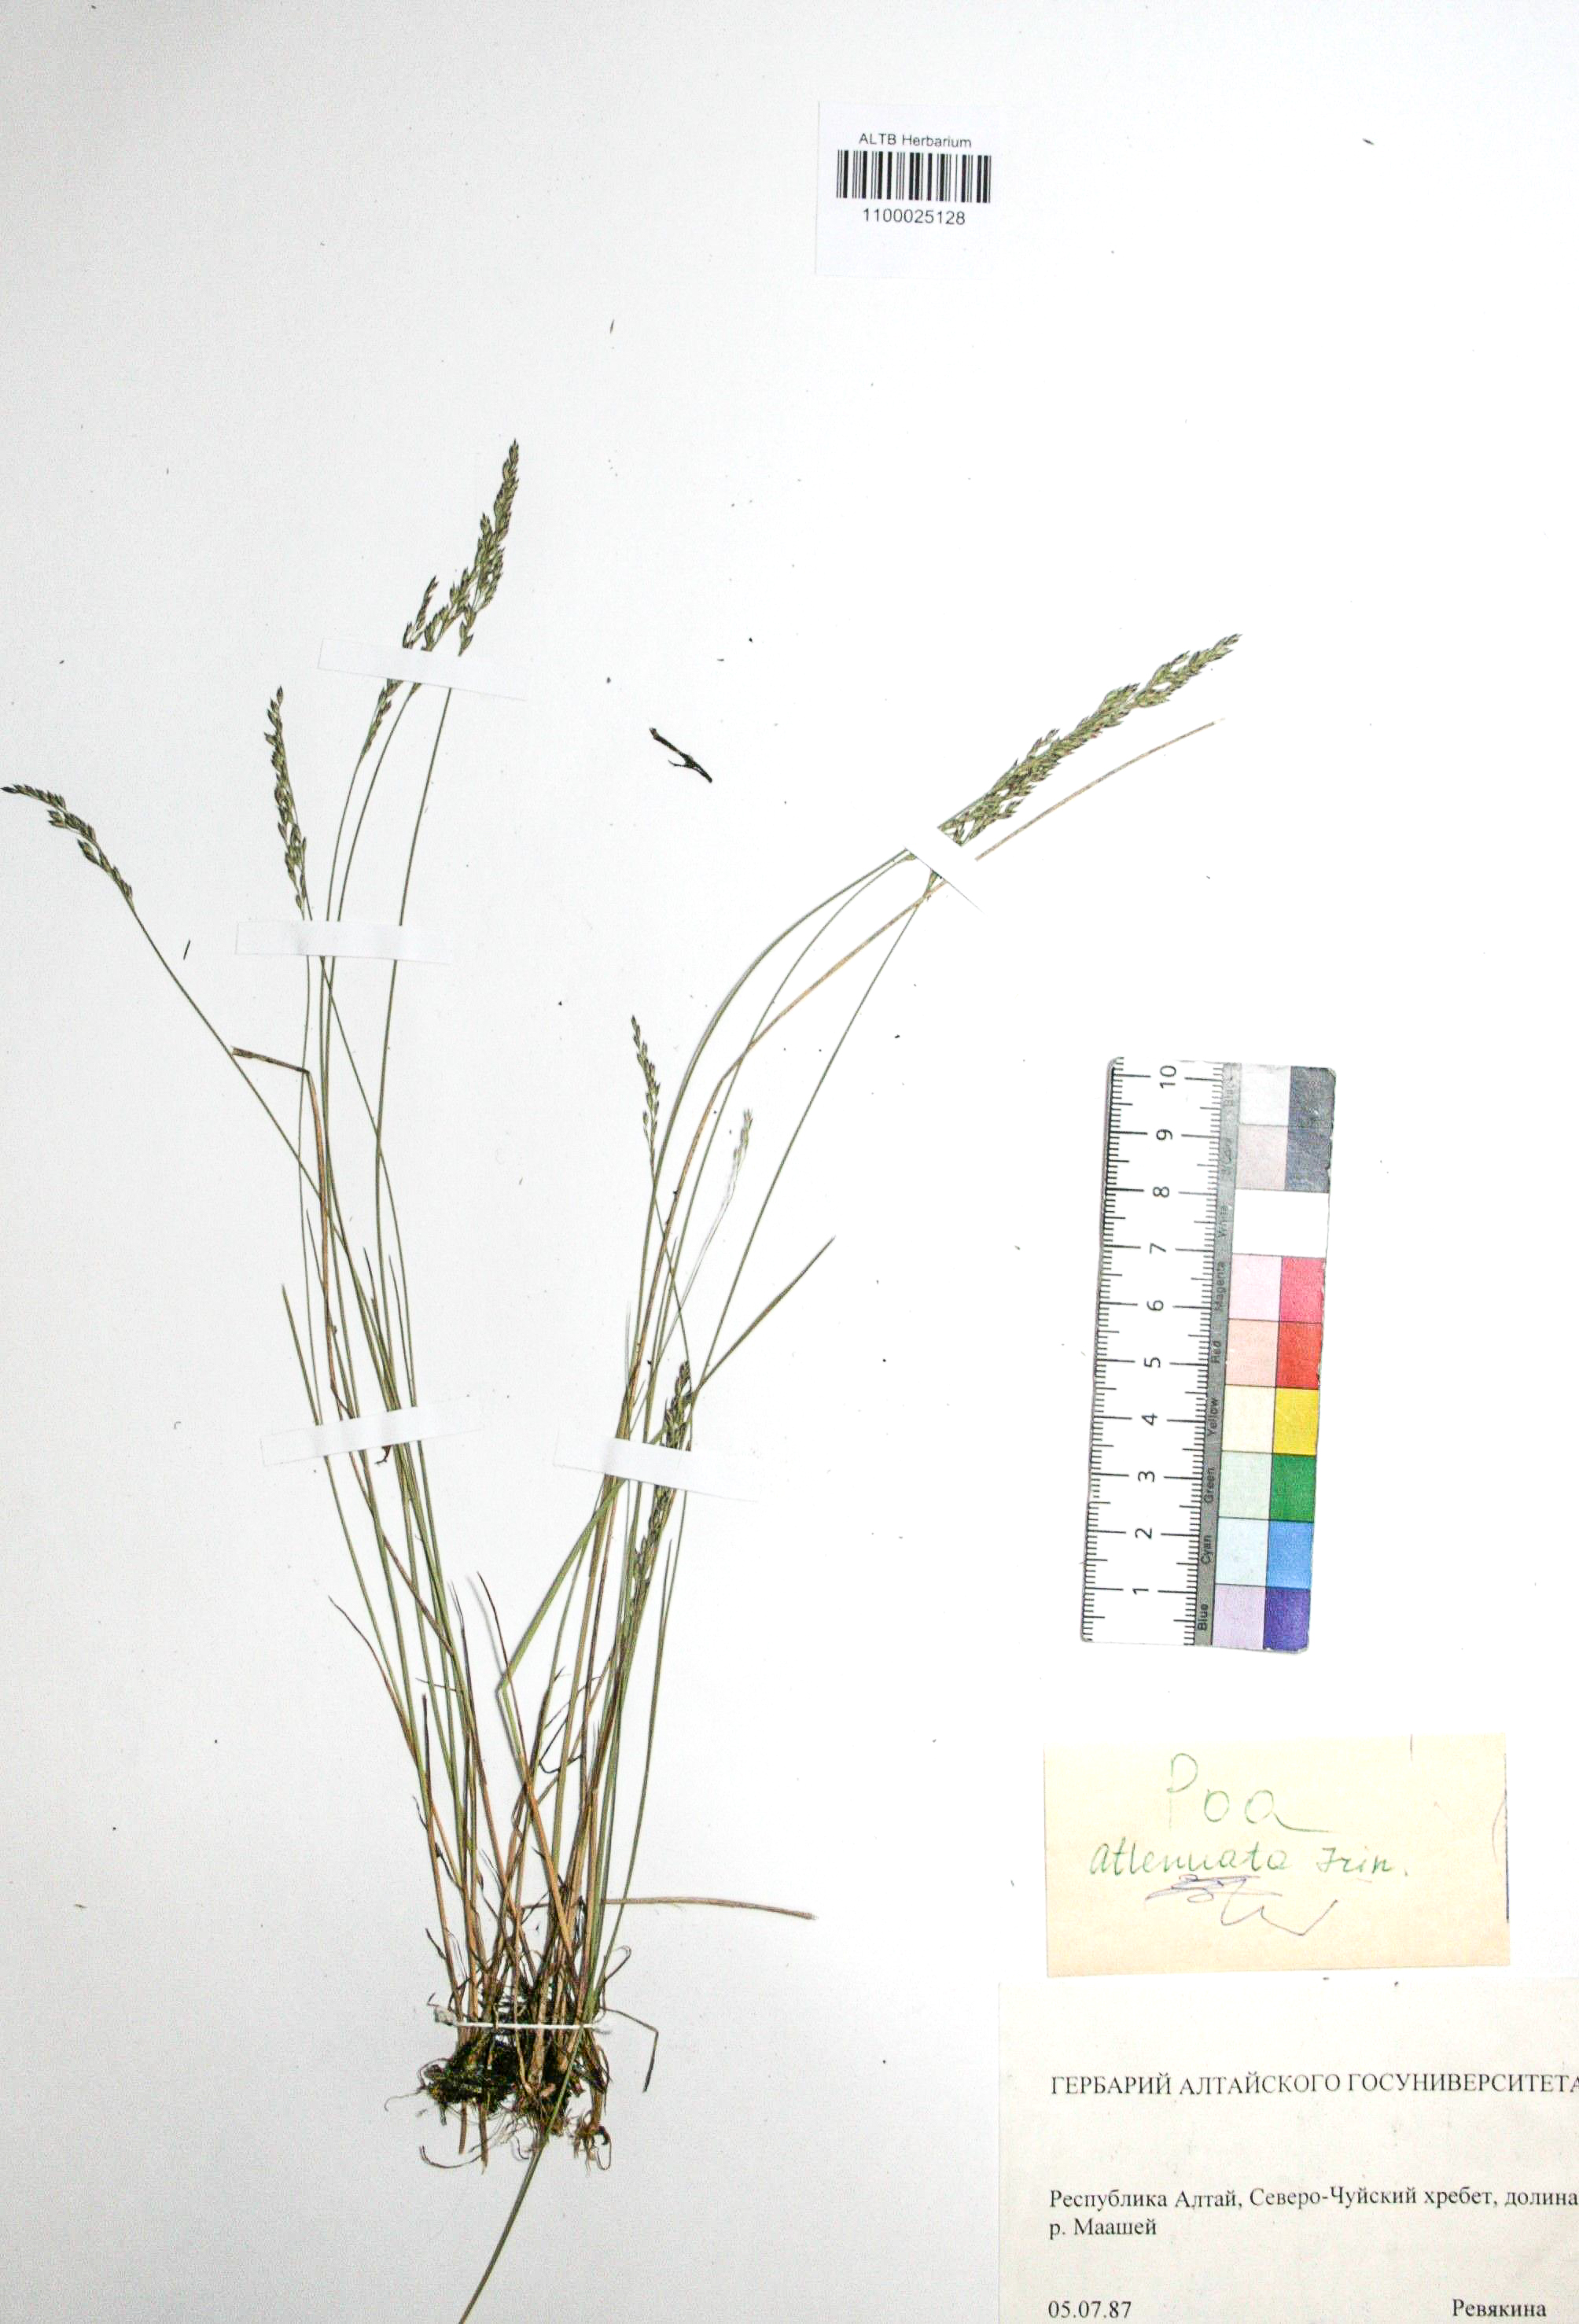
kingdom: Plantae
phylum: Tracheophyta
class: Liliopsida
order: Poales
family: Poaceae
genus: Poa
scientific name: Poa attenuata
